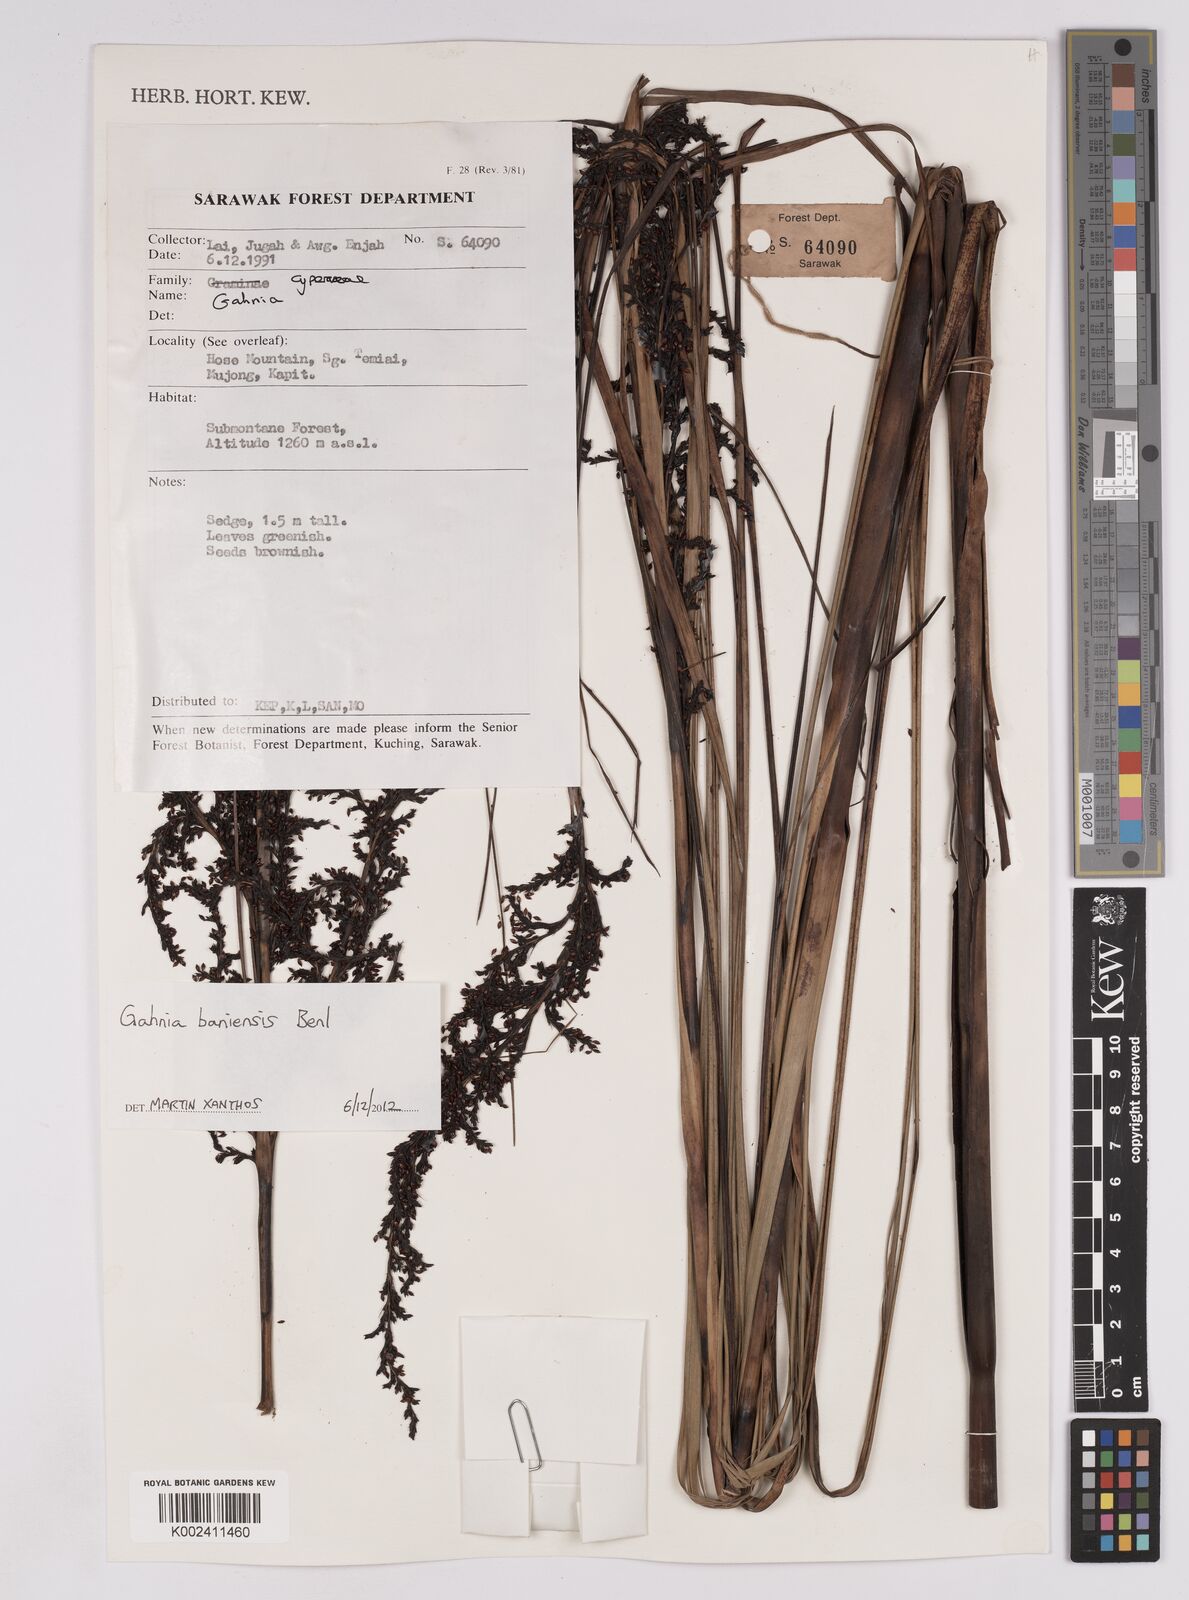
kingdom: Plantae
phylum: Tracheophyta
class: Liliopsida
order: Poales
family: Cyperaceae
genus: Gahnia
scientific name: Gahnia baniensis
